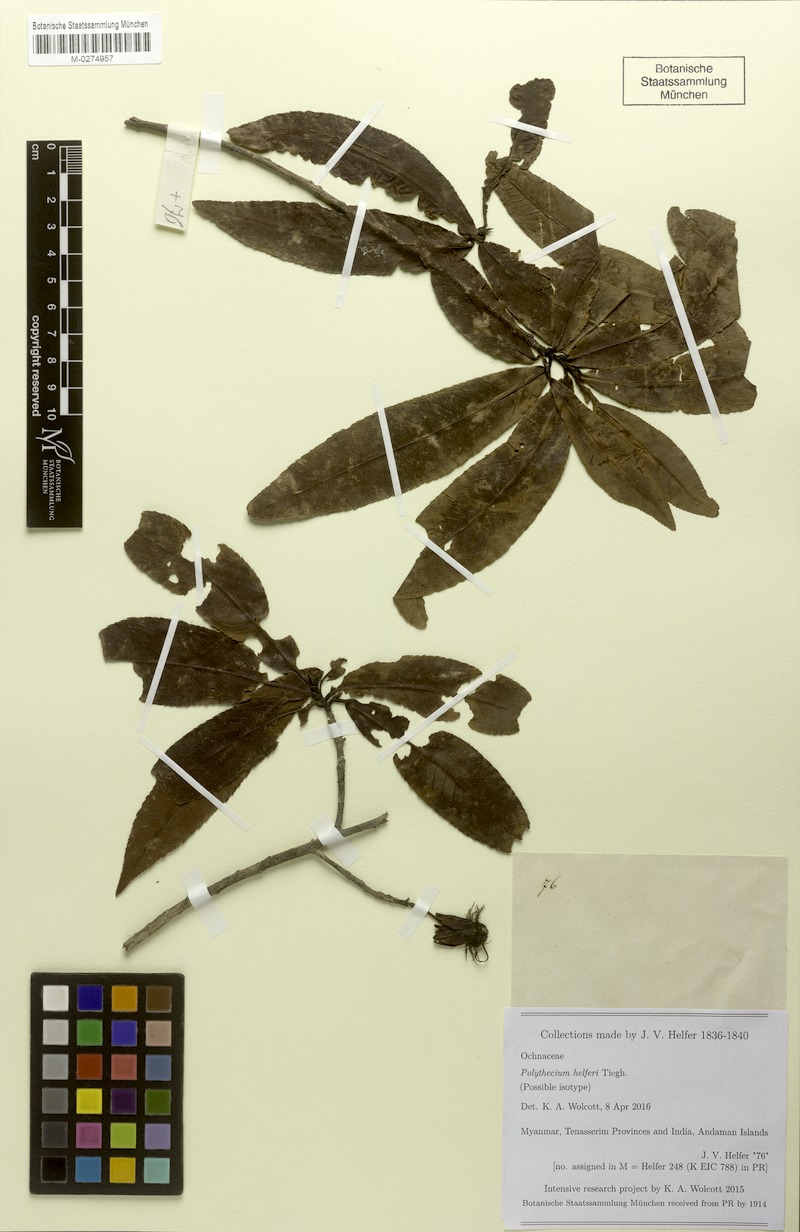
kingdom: Plantae
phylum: Tracheophyta
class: Magnoliopsida
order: Malpighiales
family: Ochnaceae
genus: Ochna
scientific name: Ochna integerrima
